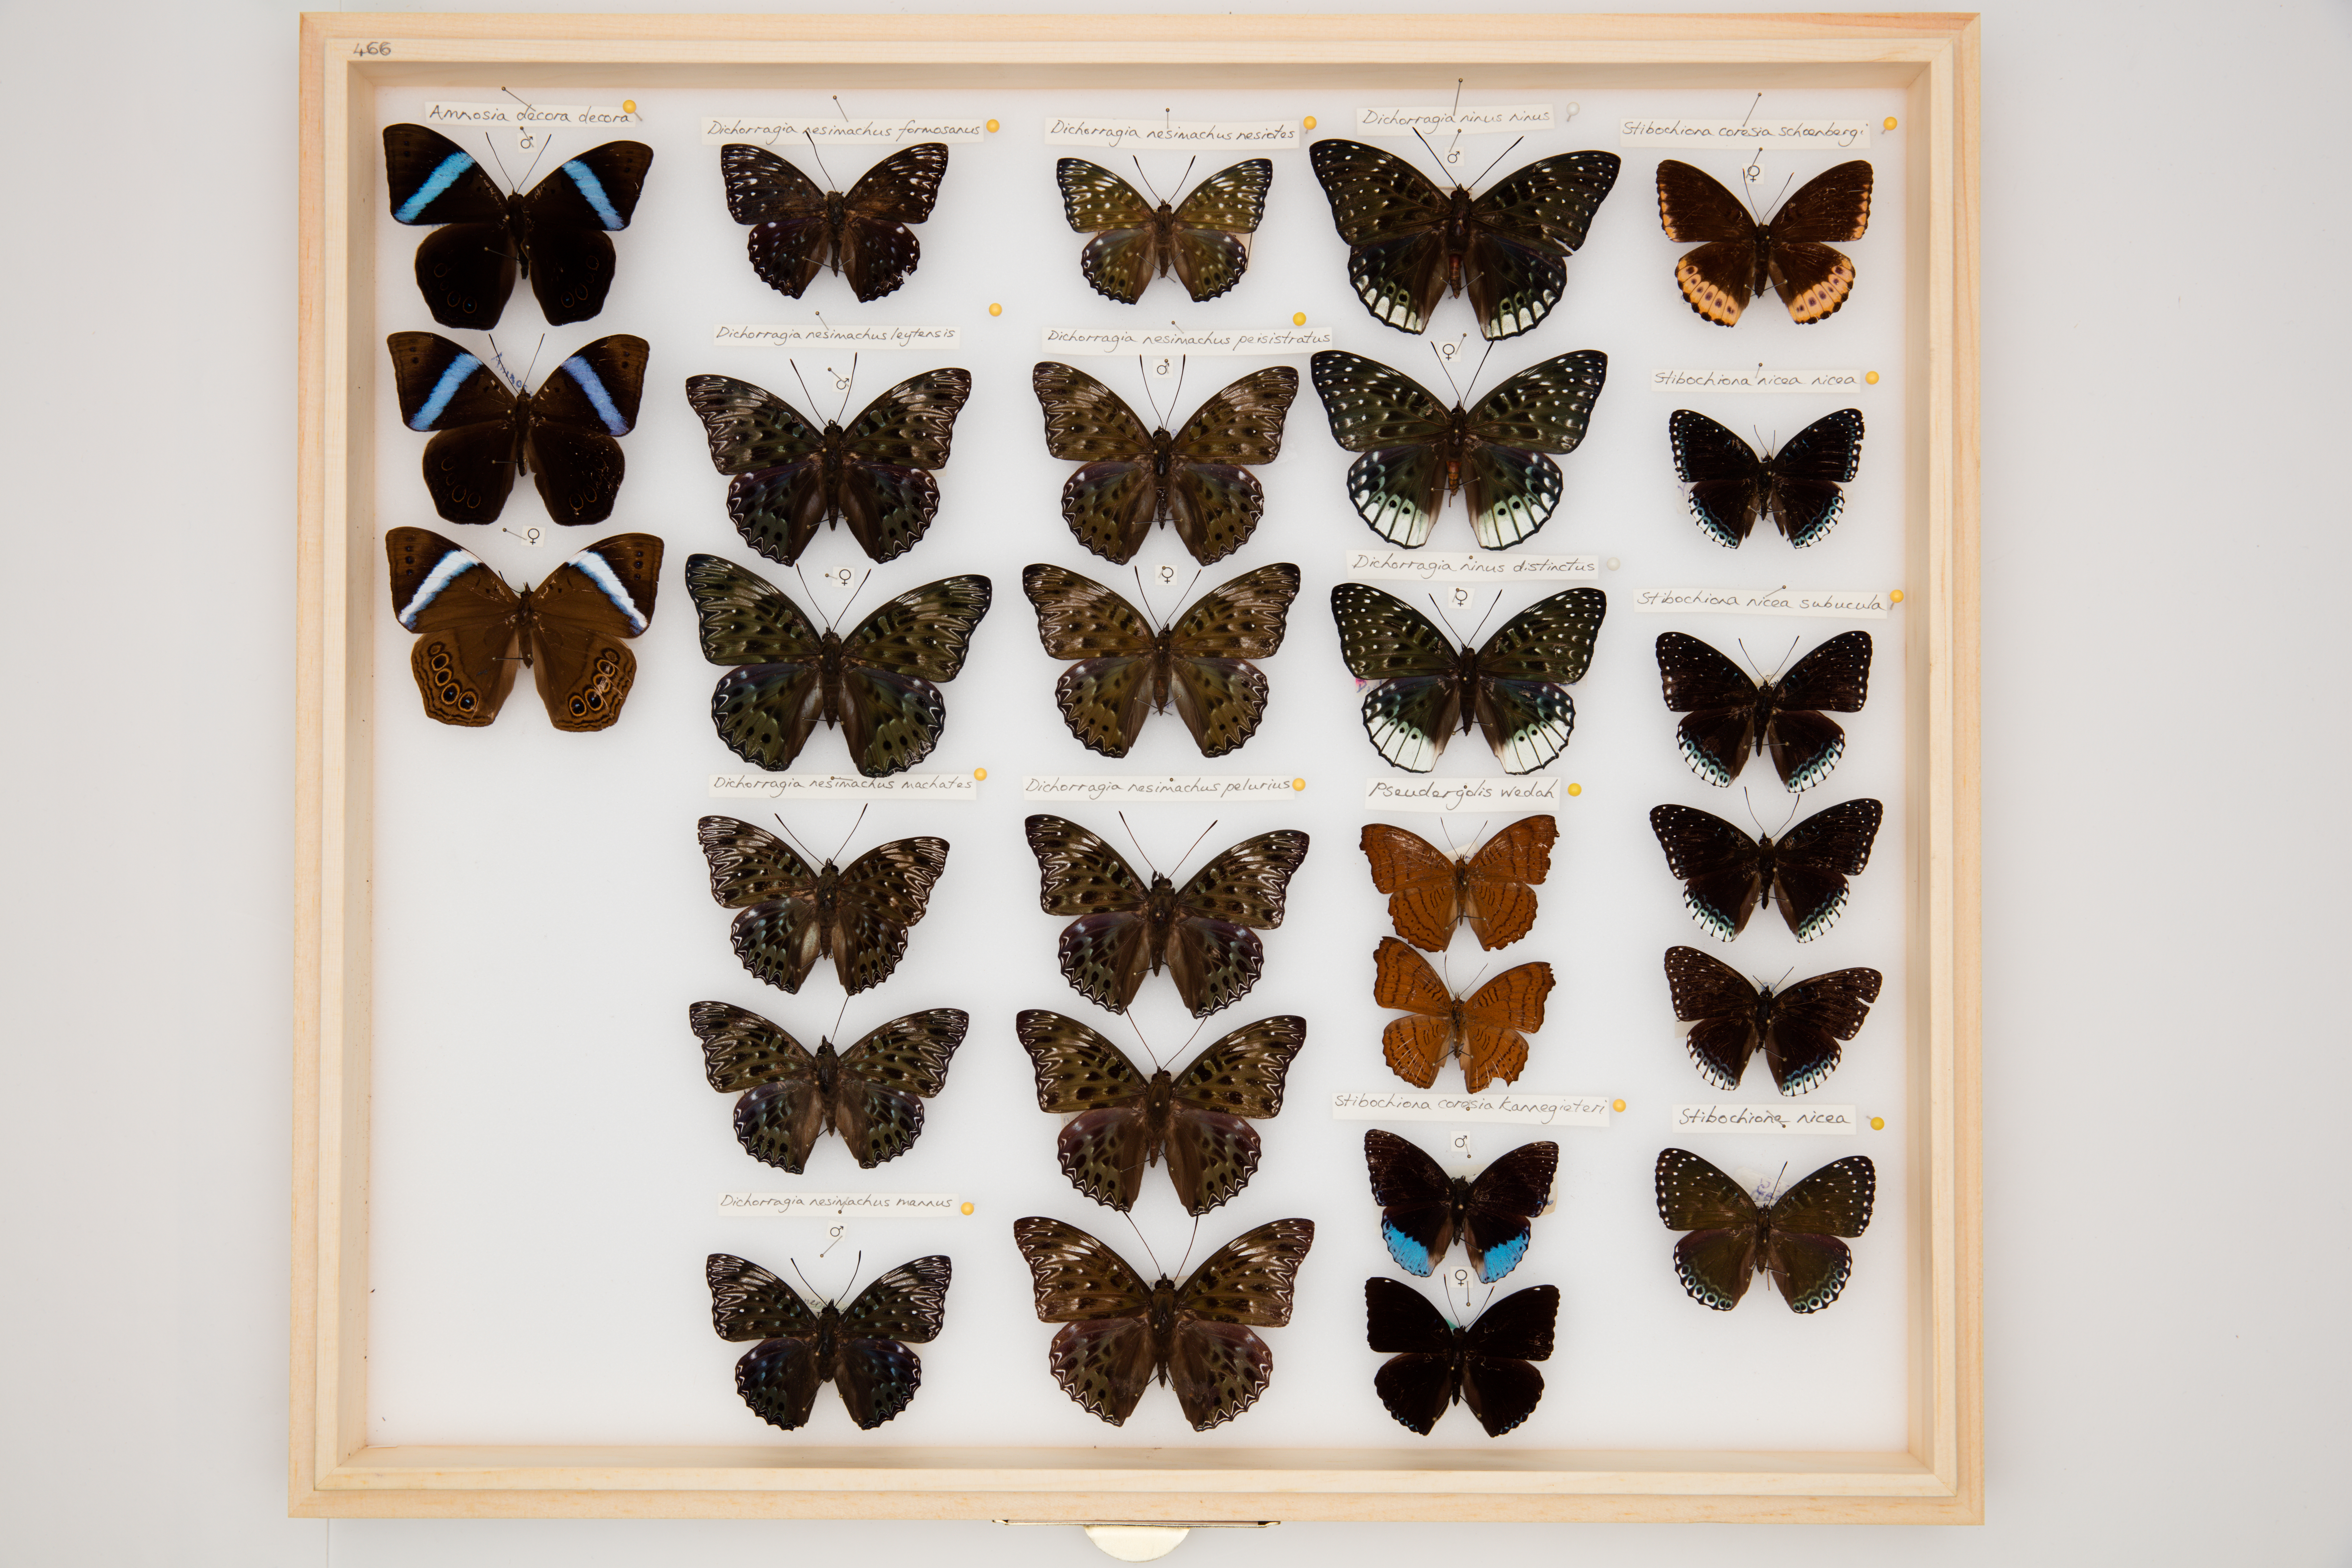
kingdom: Animalia
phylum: Arthropoda
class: Insecta
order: Lepidoptera
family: Nymphalidae
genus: Amnosia
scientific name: Amnosia decora
